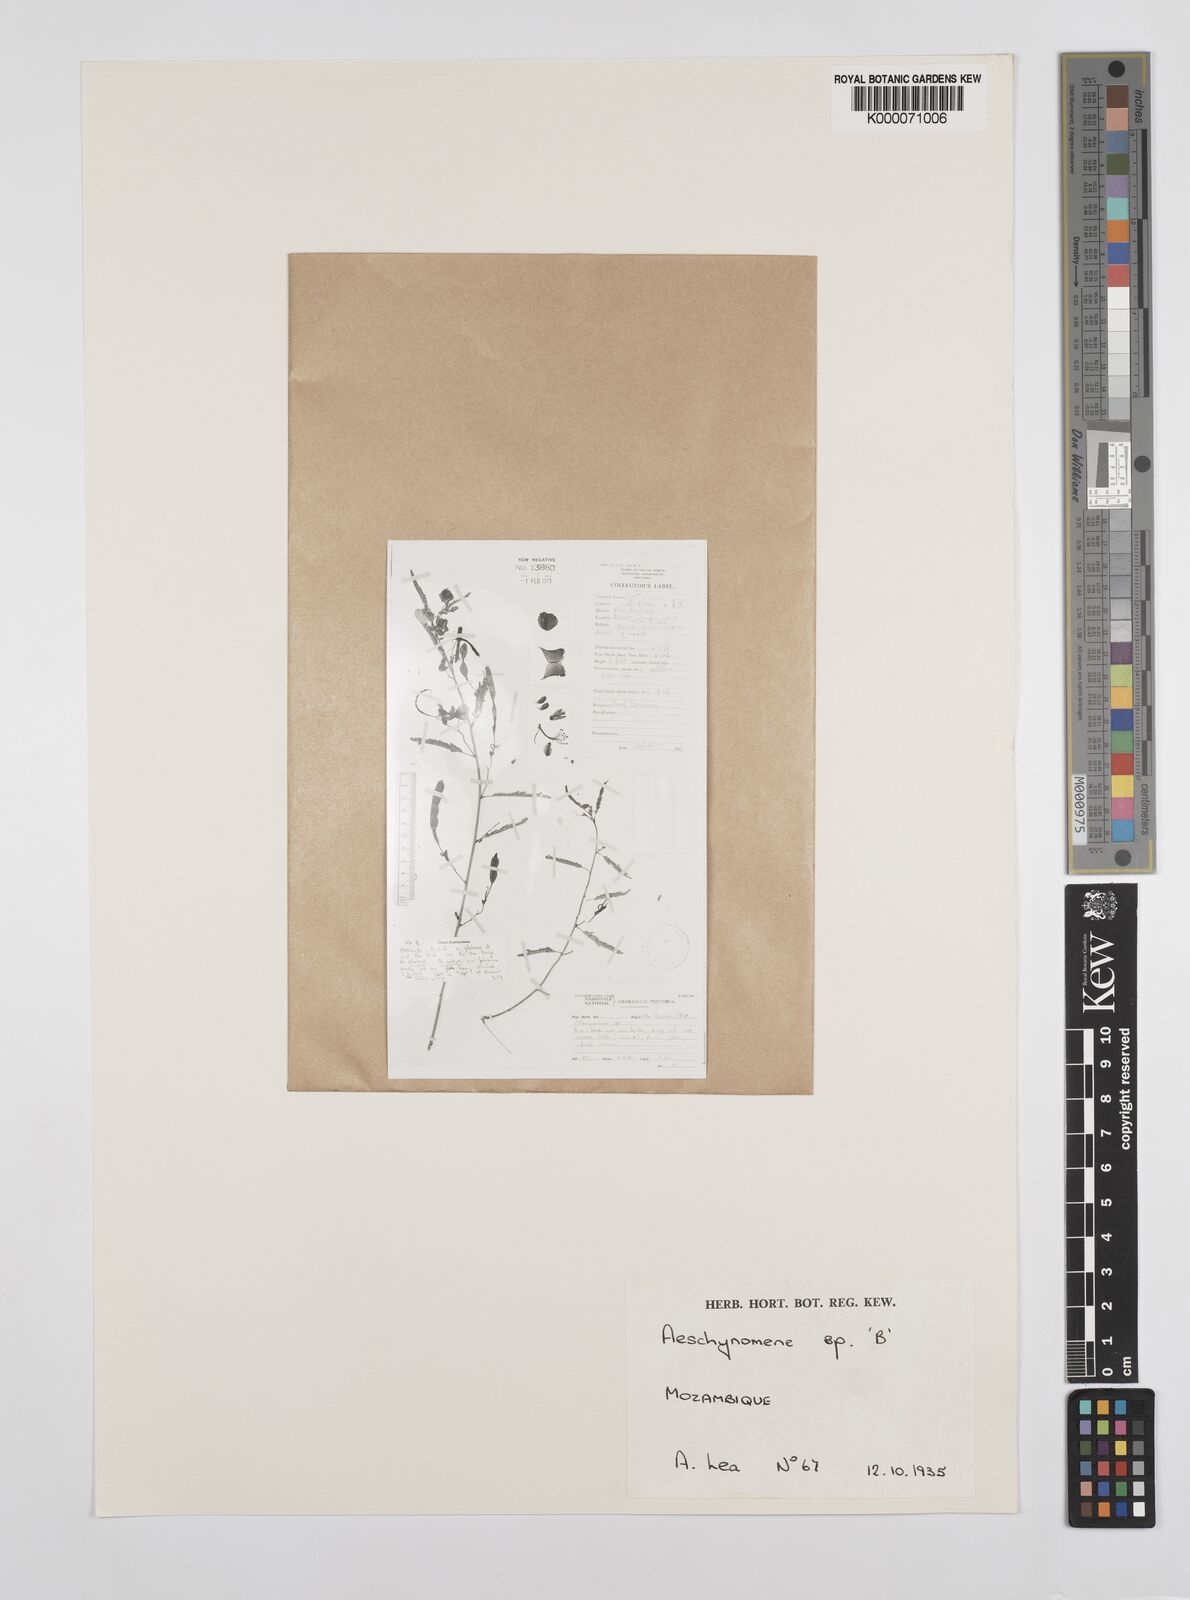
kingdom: Plantae
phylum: Tracheophyta
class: Magnoliopsida
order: Fabales
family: Fabaceae
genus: Aeschynomene
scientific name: Aeschynomene
